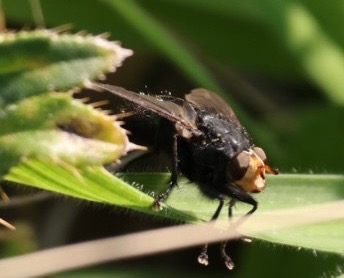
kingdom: Animalia
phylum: Arthropoda
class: Insecta
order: Diptera
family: Calliphoridae
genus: Cynomya
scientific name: Cynomya mortuorum
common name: Dødsflue
